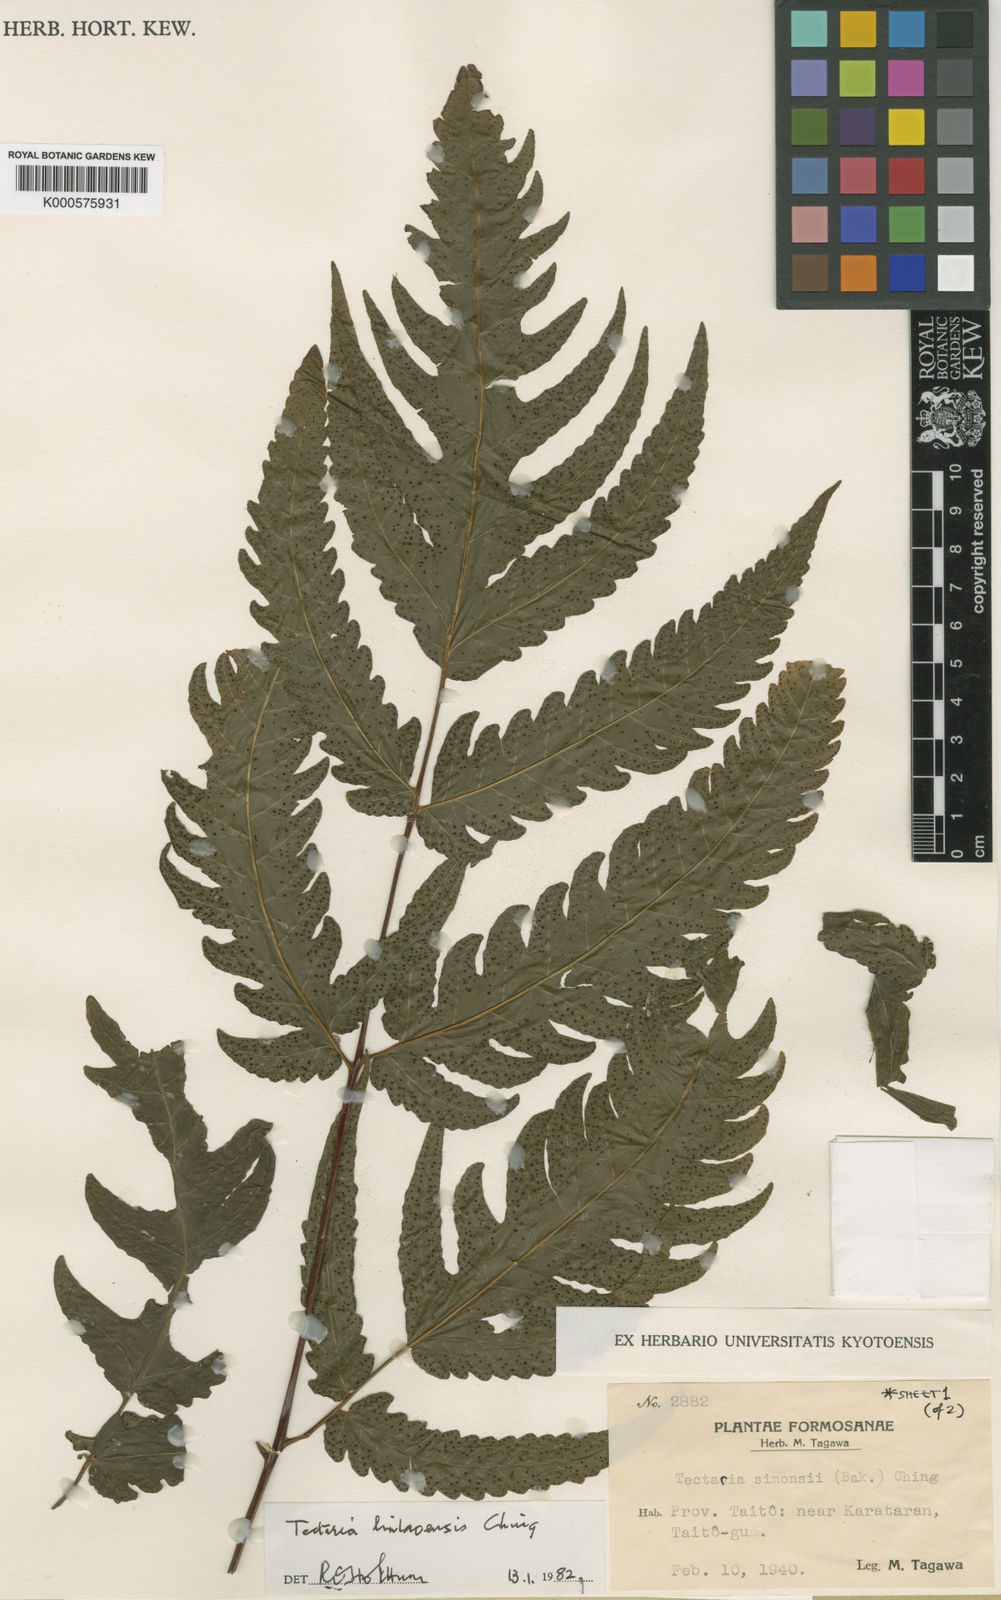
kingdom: Plantae
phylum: Tracheophyta
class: Polypodiopsida
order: Polypodiales
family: Tectariaceae
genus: Tectaria
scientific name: Tectaria subtriphylla
